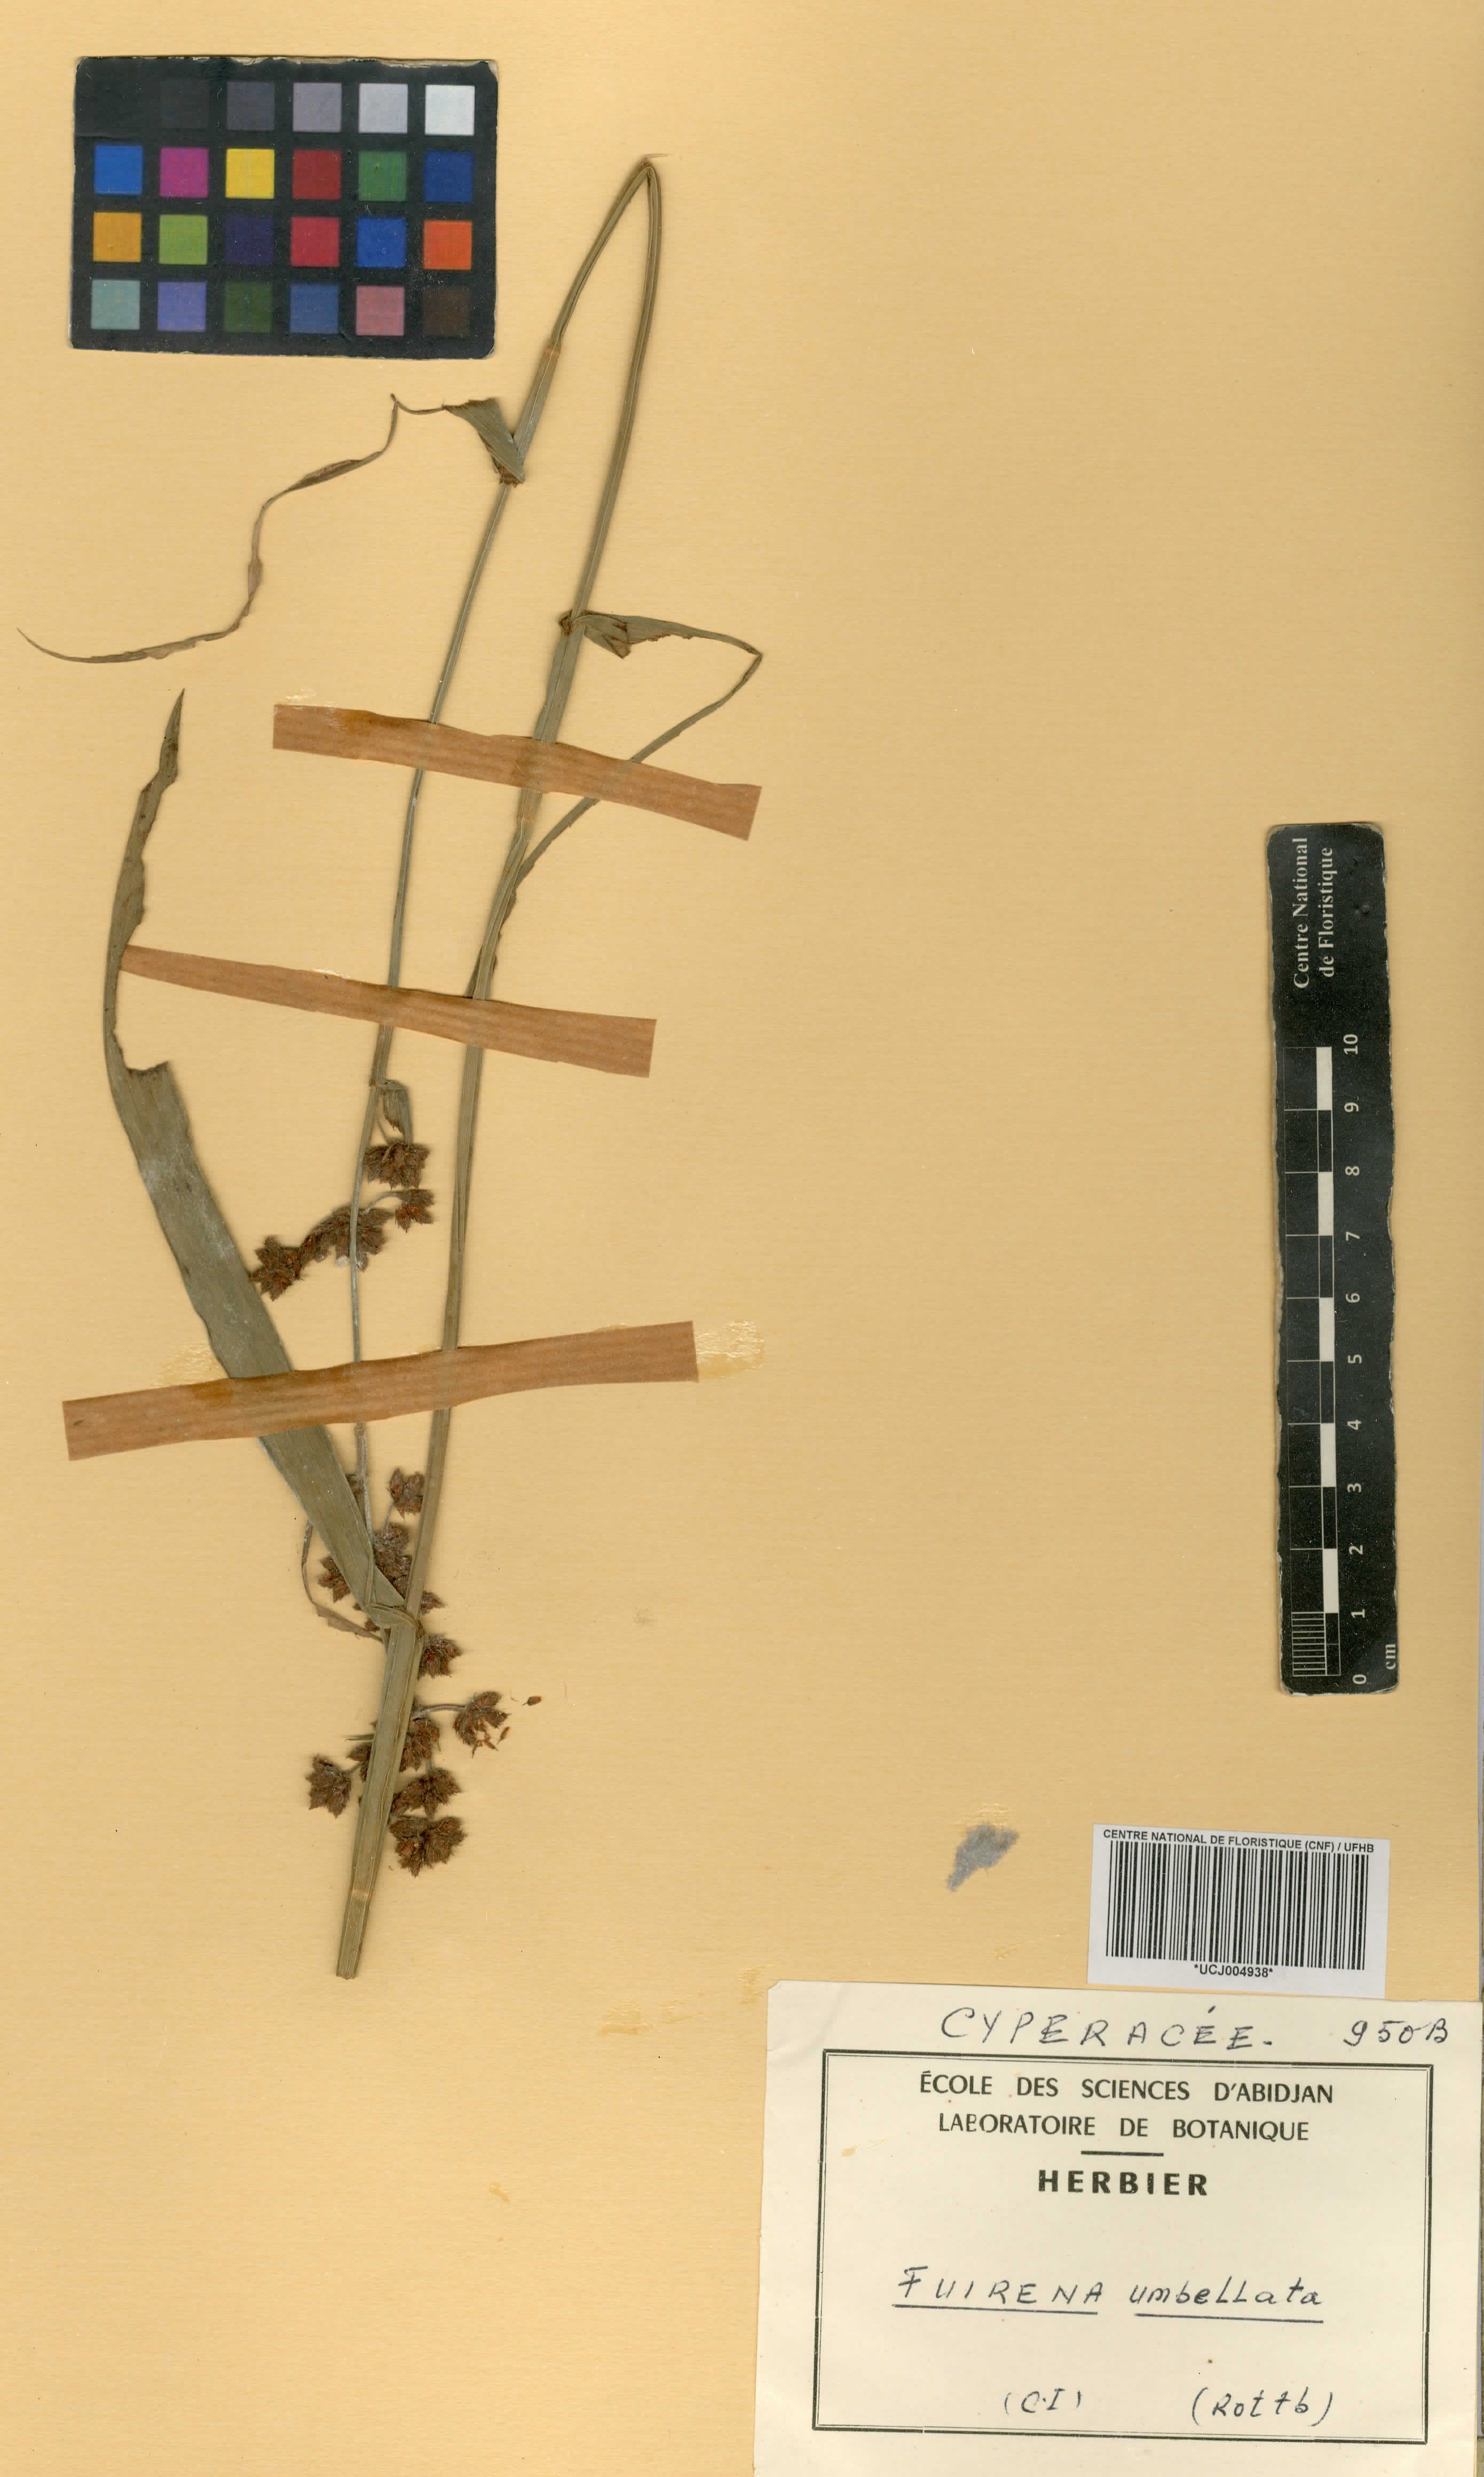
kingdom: Plantae
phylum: Tracheophyta
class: Liliopsida
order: Poales
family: Cyperaceae
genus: Fuirena
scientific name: Fuirena umbellata
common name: Yefen
